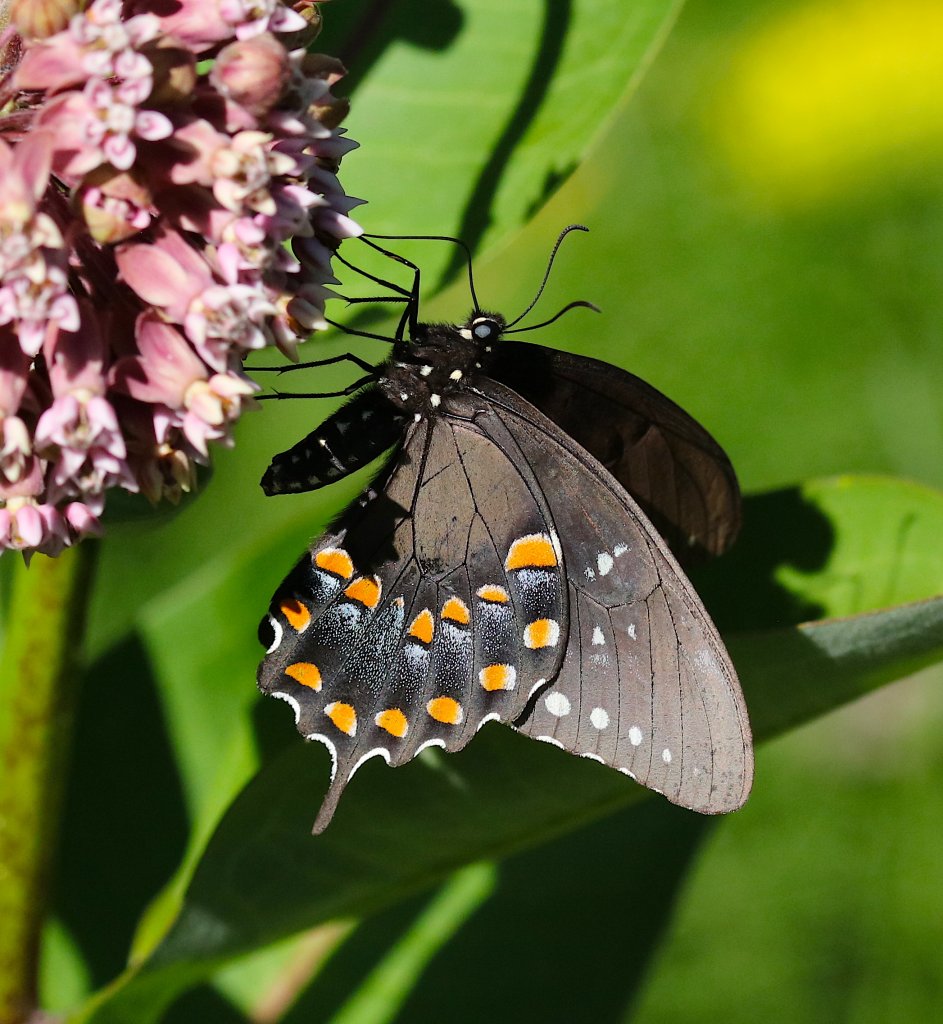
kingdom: Animalia
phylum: Arthropoda
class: Insecta
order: Lepidoptera
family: Papilionidae
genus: Pterourus
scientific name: Pterourus troilus
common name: Spicebush Swallowtail
